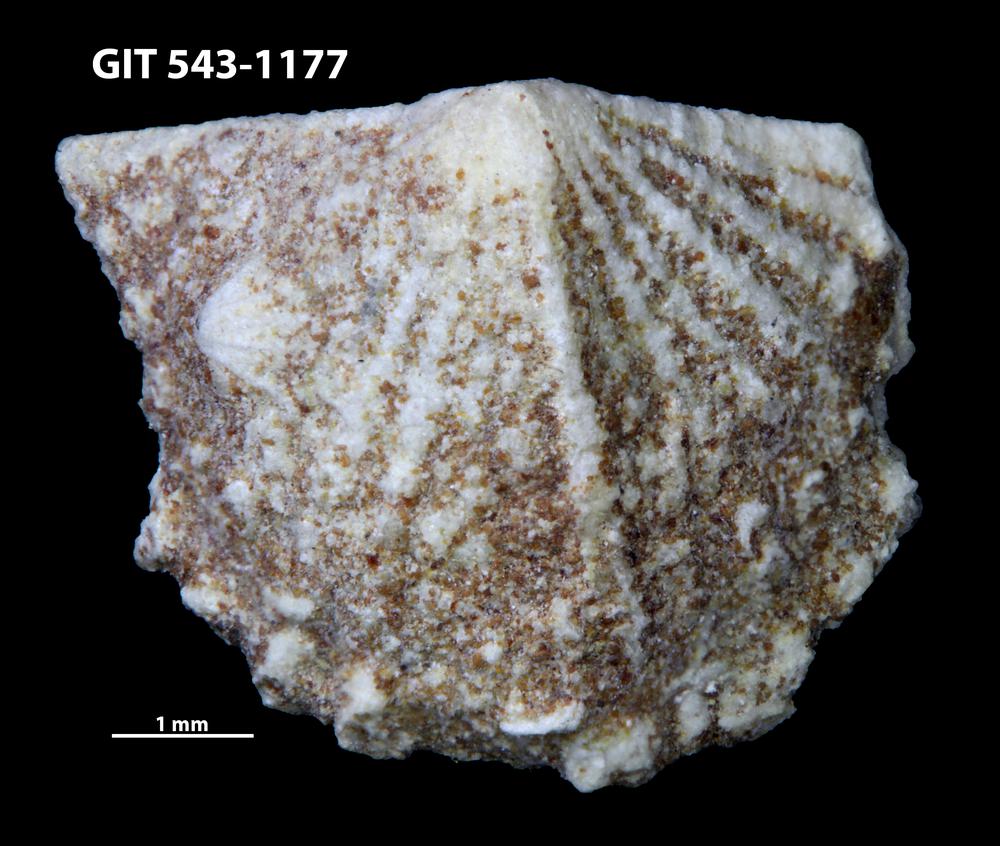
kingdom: Animalia
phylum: Brachiopoda
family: Kullervoidae
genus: Kullervo
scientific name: Kullervo
